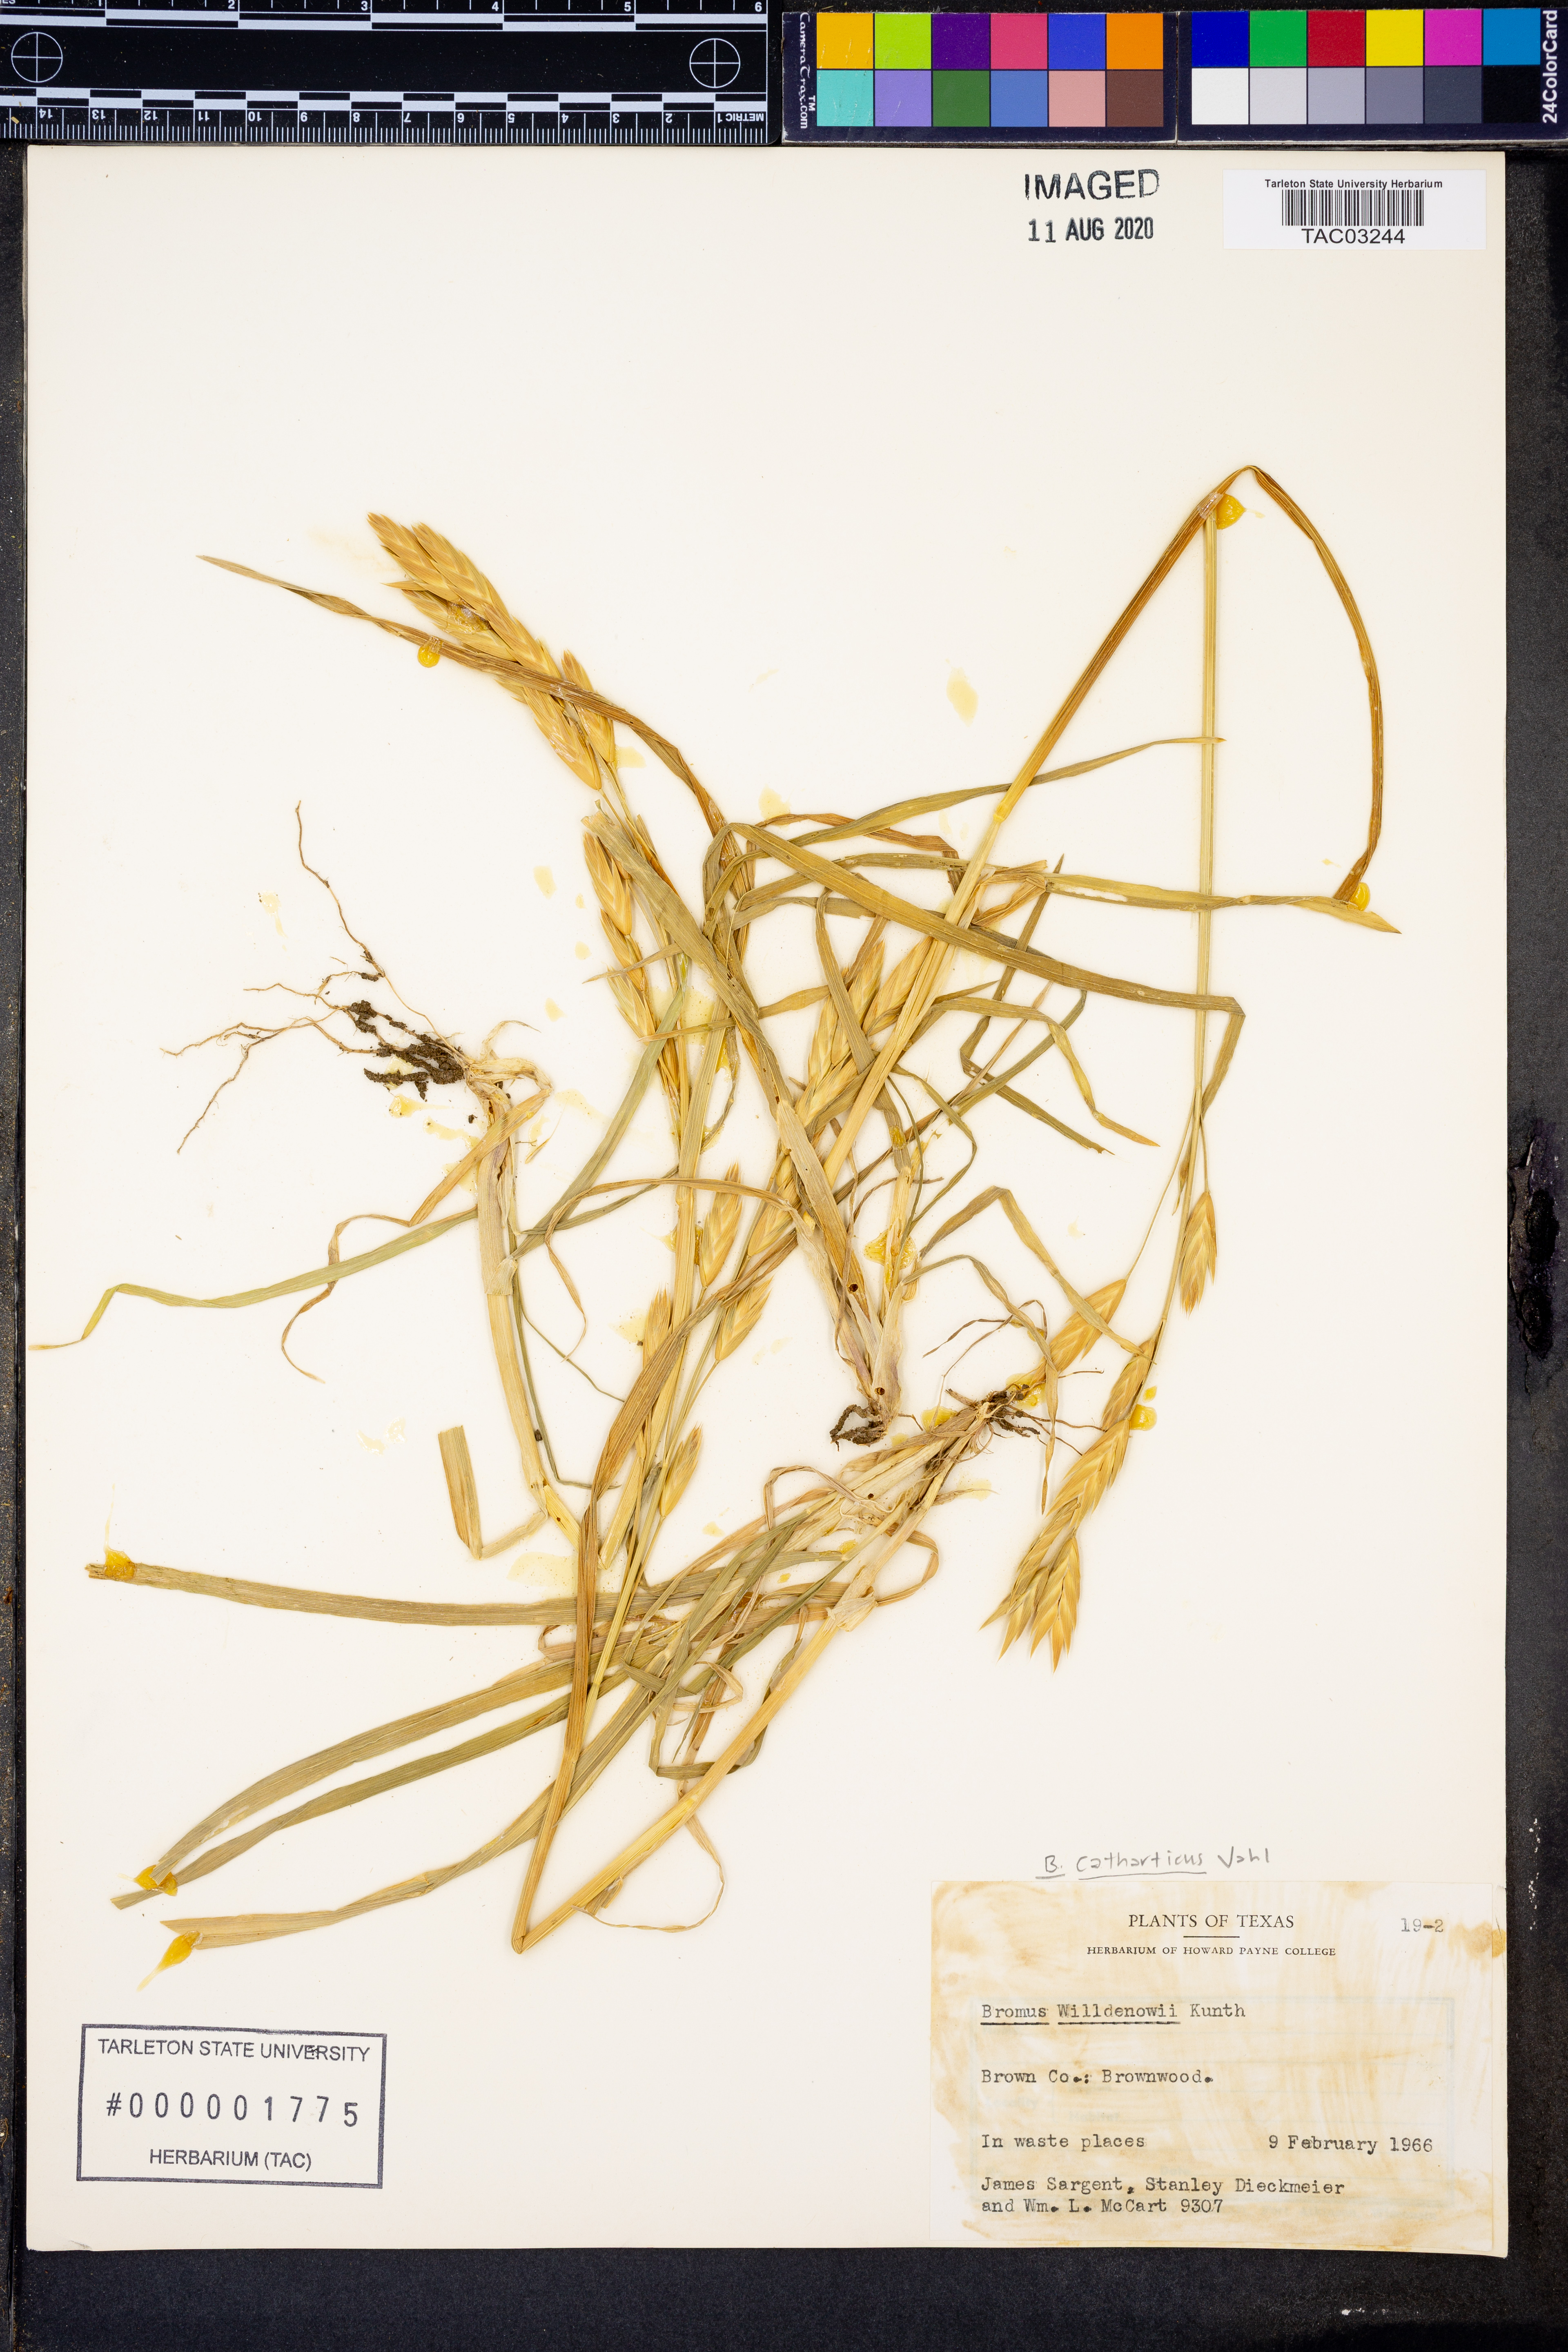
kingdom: Plantae
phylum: Tracheophyta
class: Liliopsida
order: Poales
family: Poaceae
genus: Bromus
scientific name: Bromus catharticus
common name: Rescuegrass
